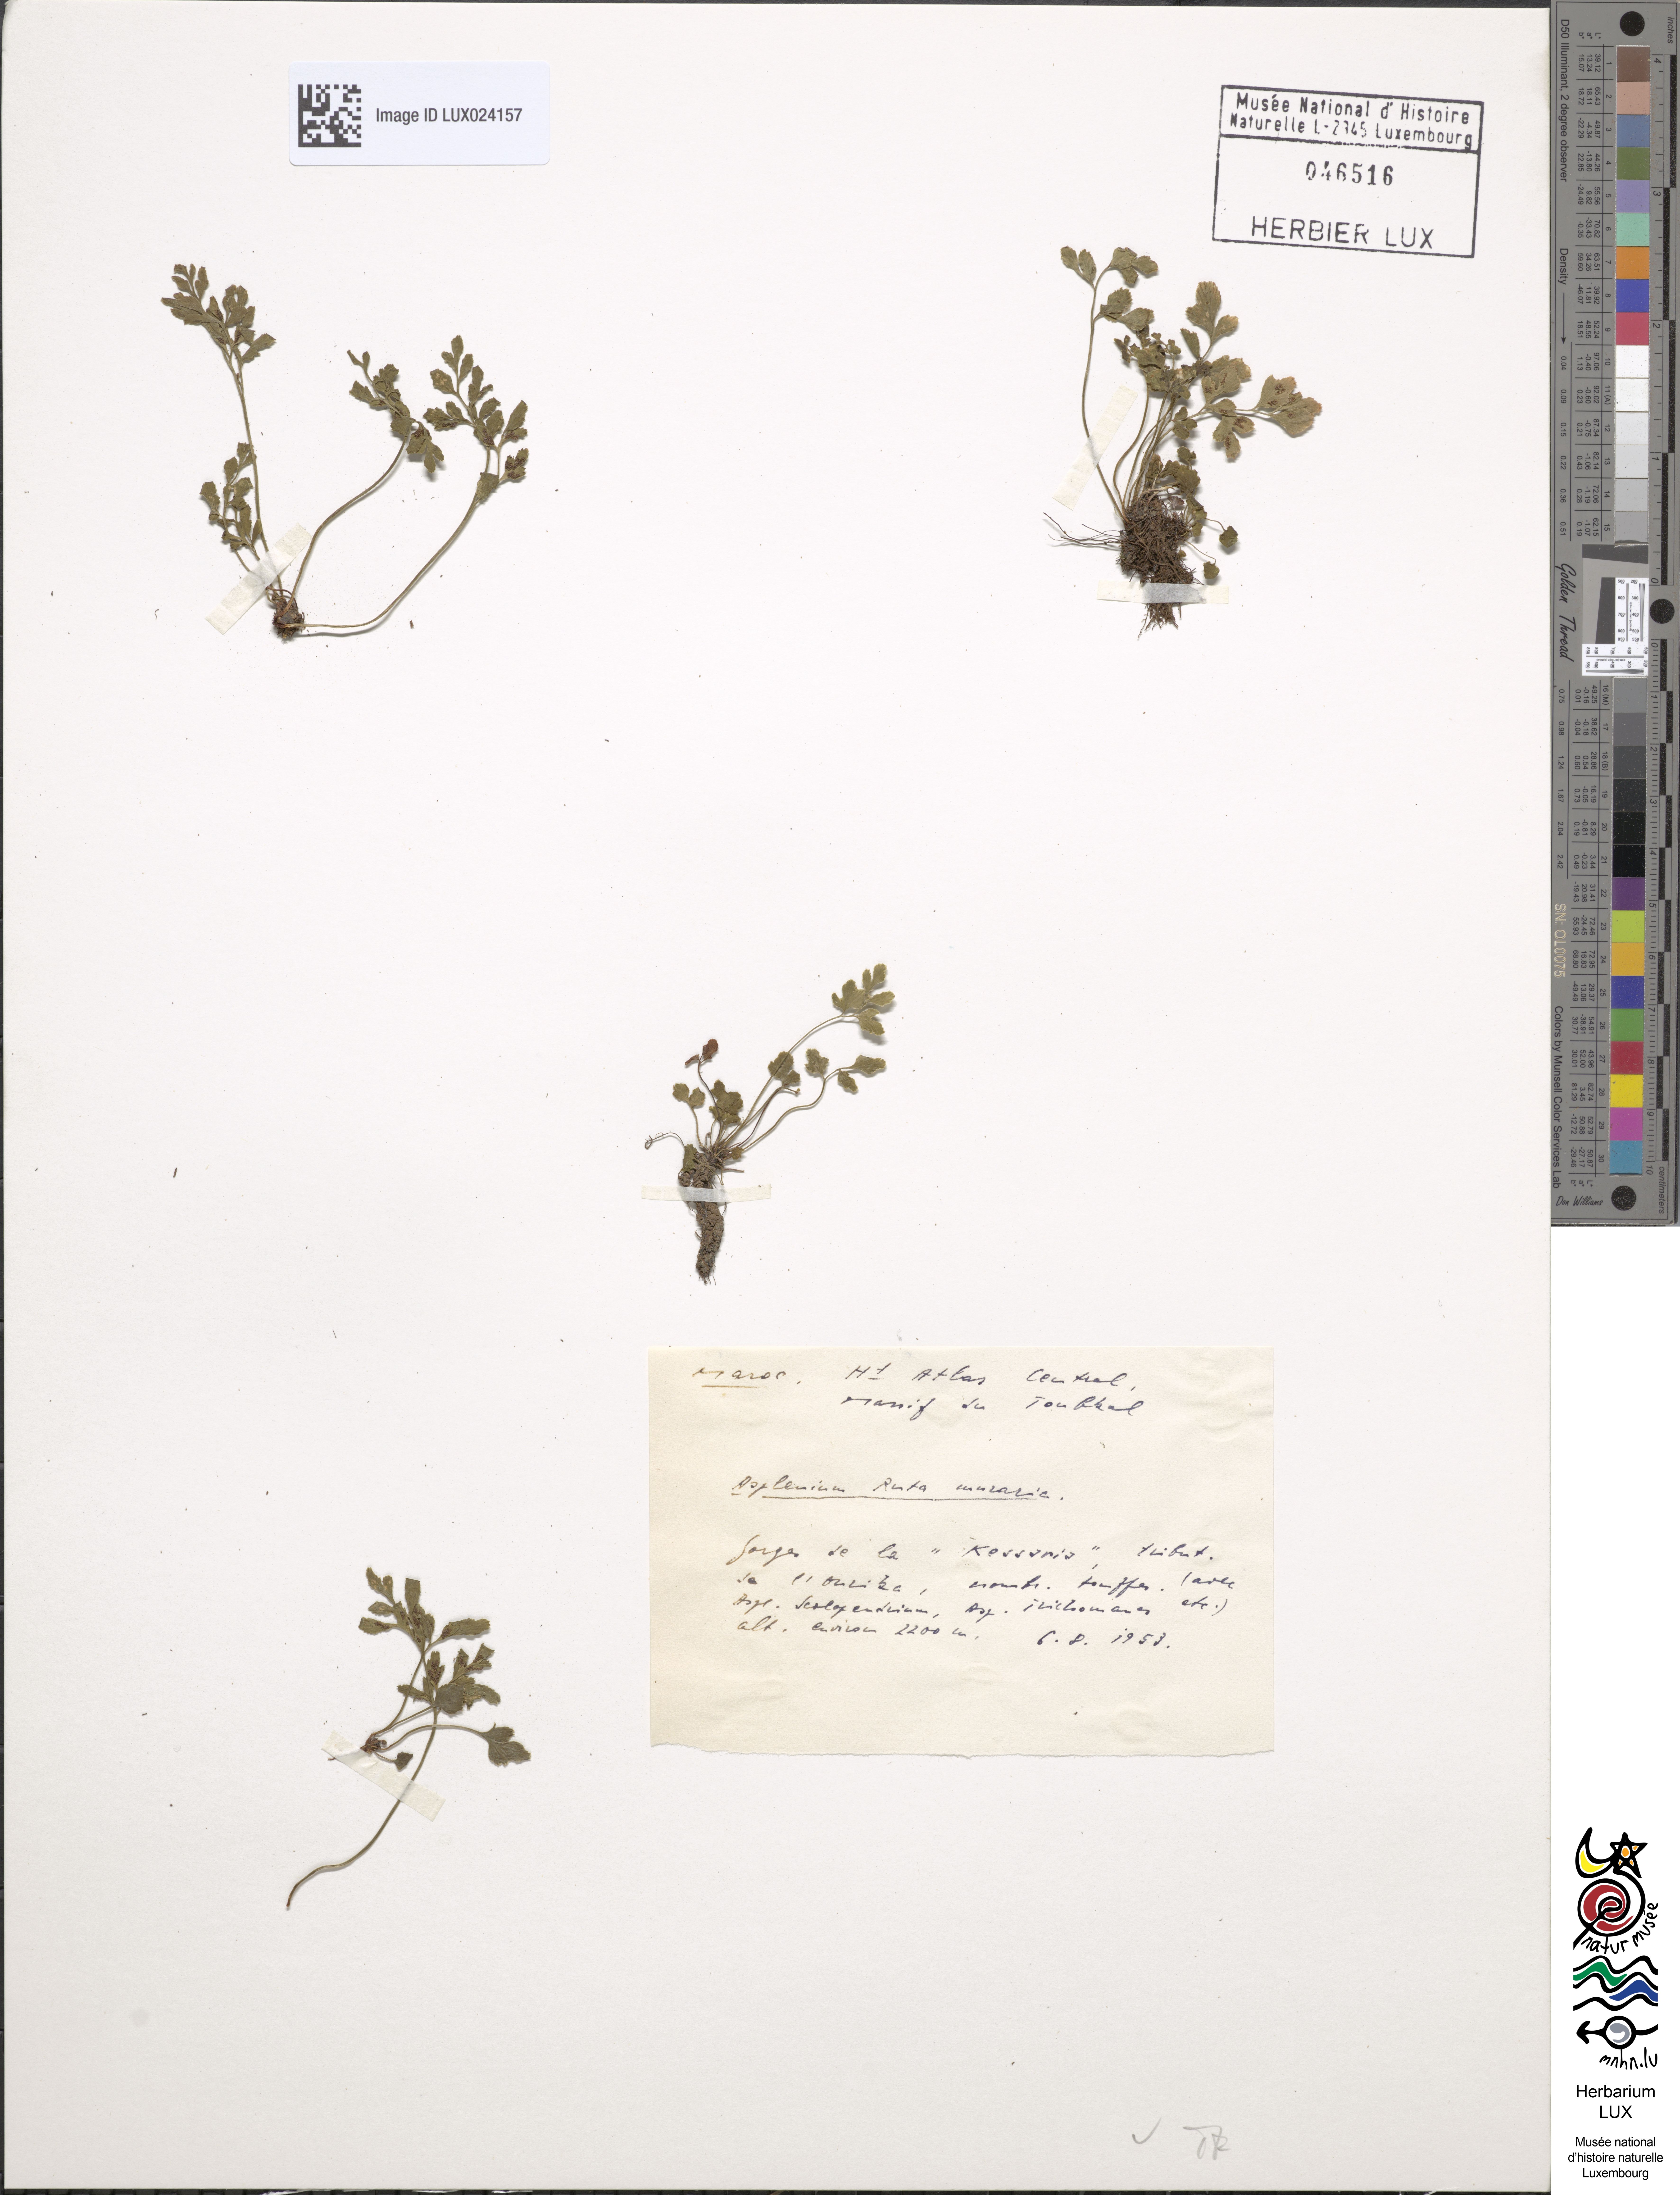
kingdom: Plantae
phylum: Tracheophyta
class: Polypodiopsida
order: Polypodiales
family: Aspleniaceae
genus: Asplenium
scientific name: Asplenium ruta-muraria
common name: Wall-rue
